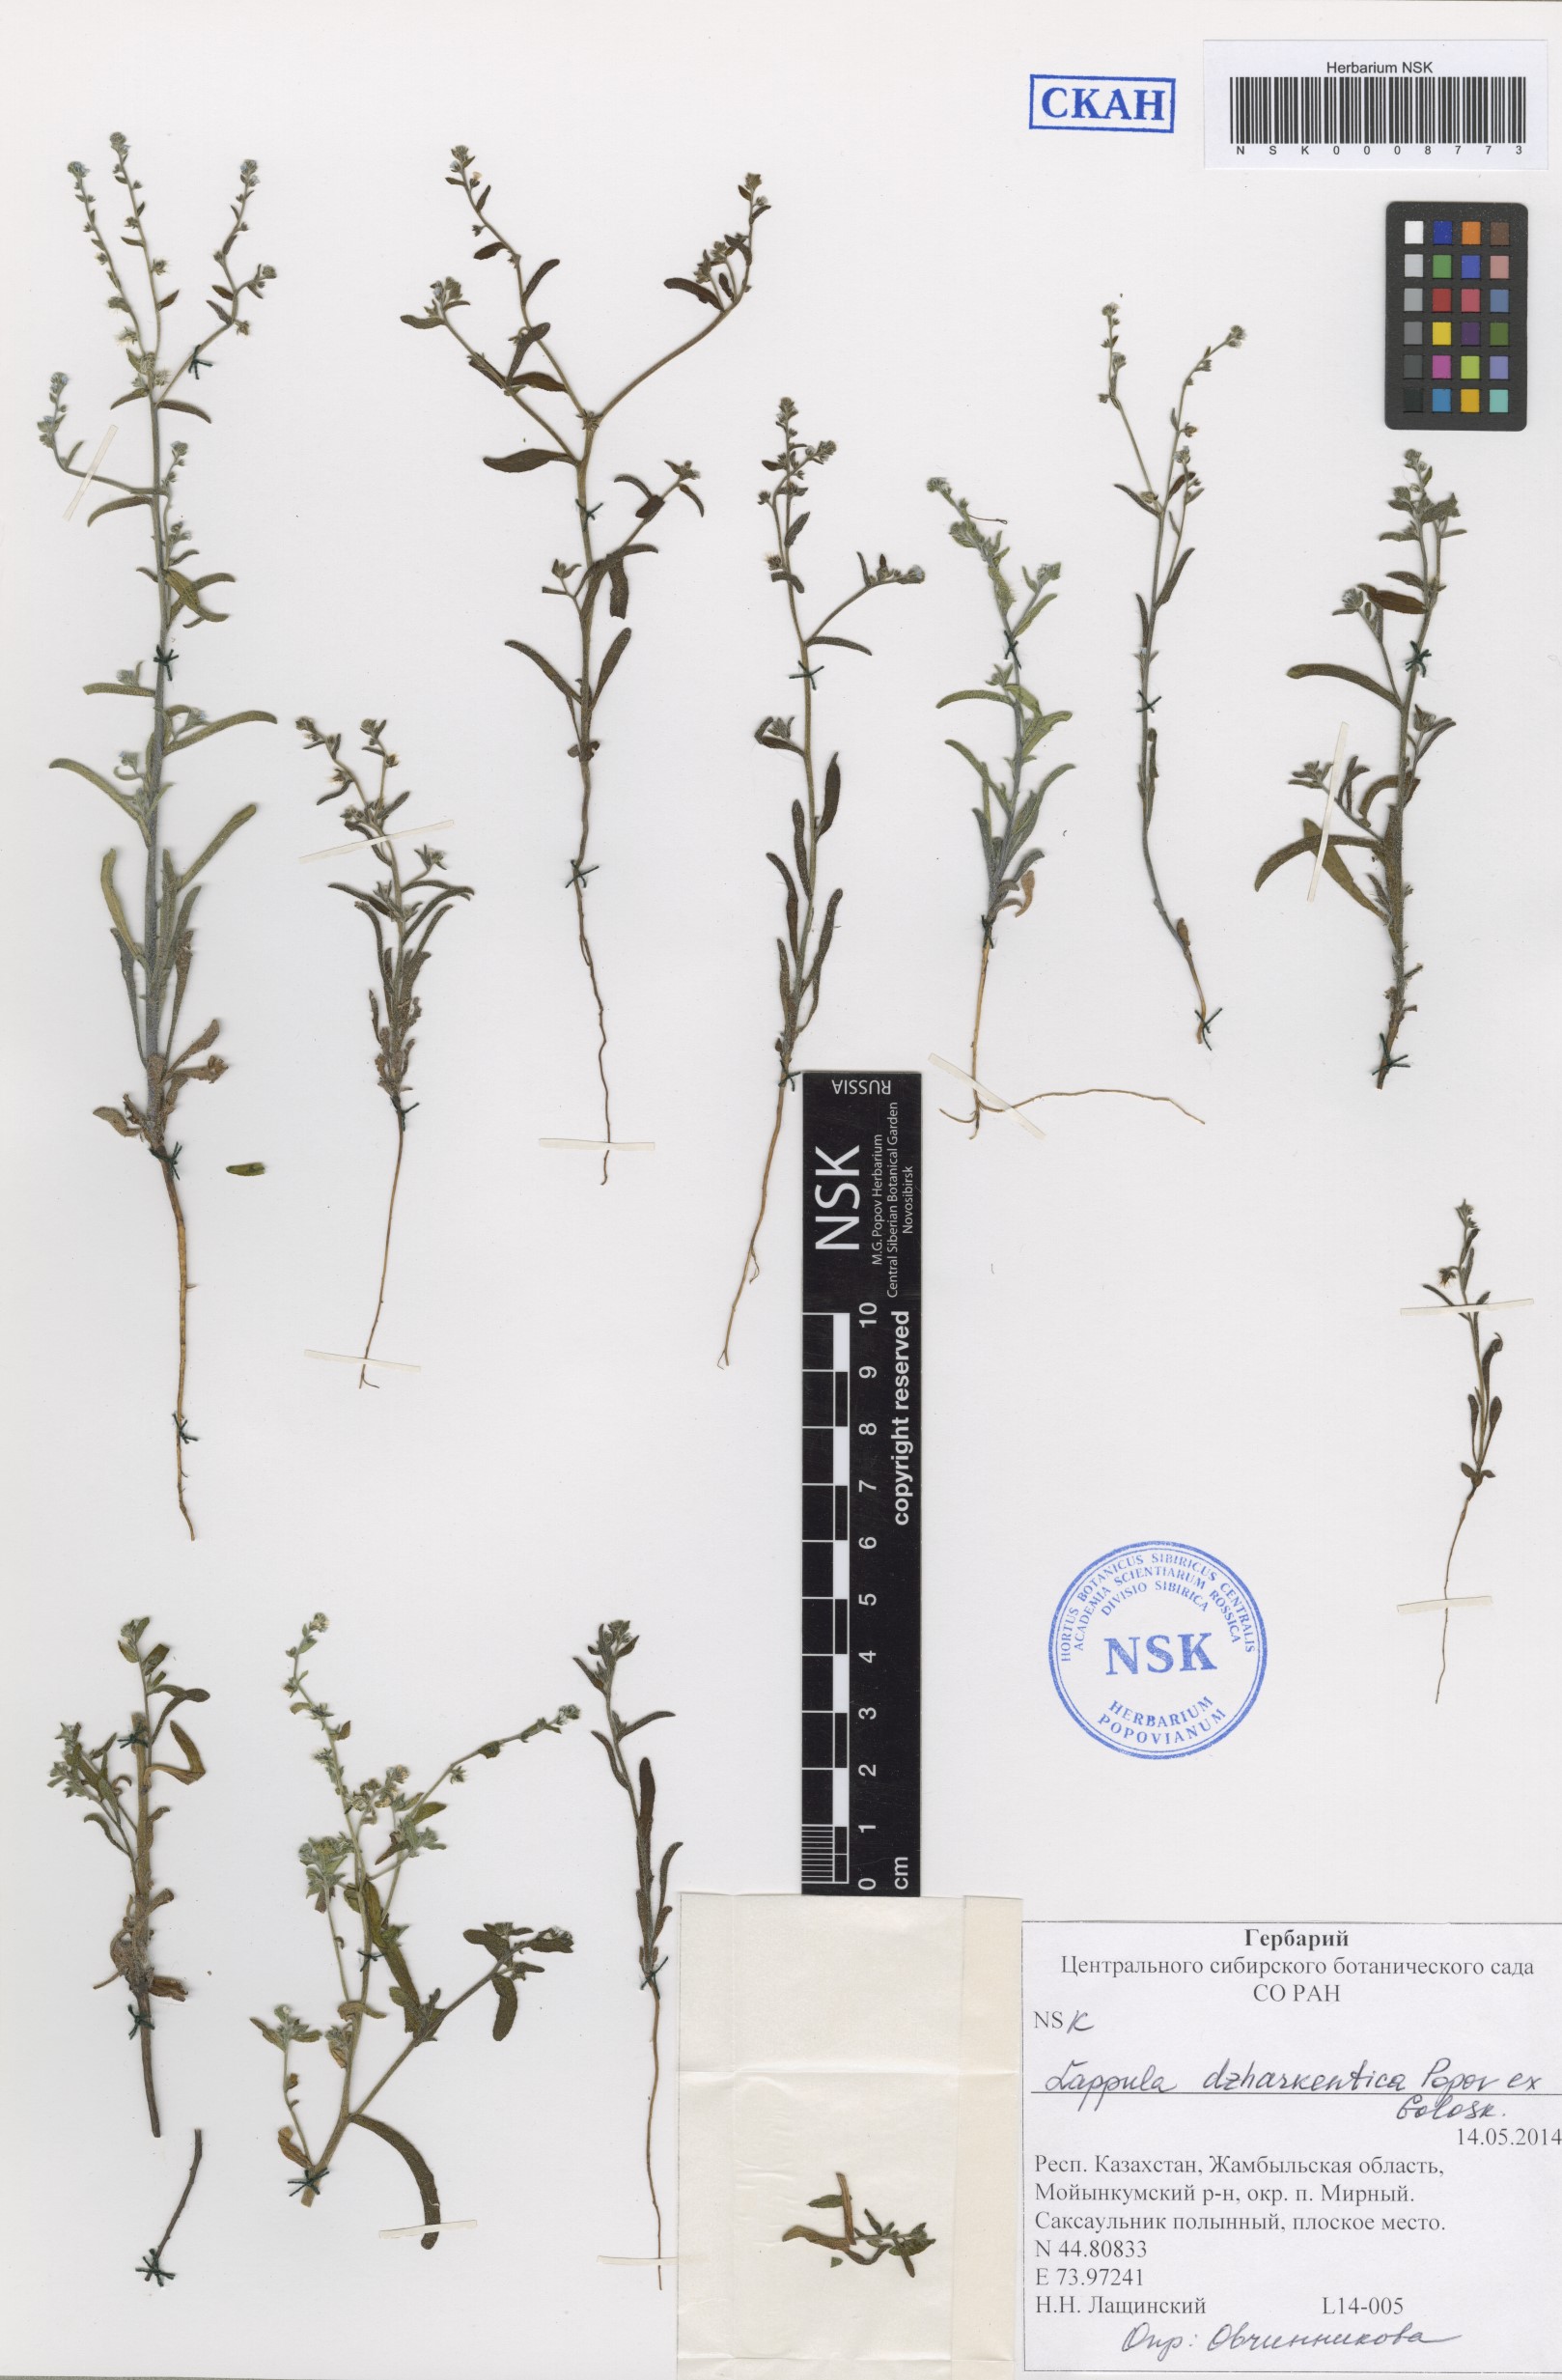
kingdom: Plantae
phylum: Tracheophyta
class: Magnoliopsida
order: Boraginales
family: Boraginaceae
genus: Lappula
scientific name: Lappula dzharkentica
